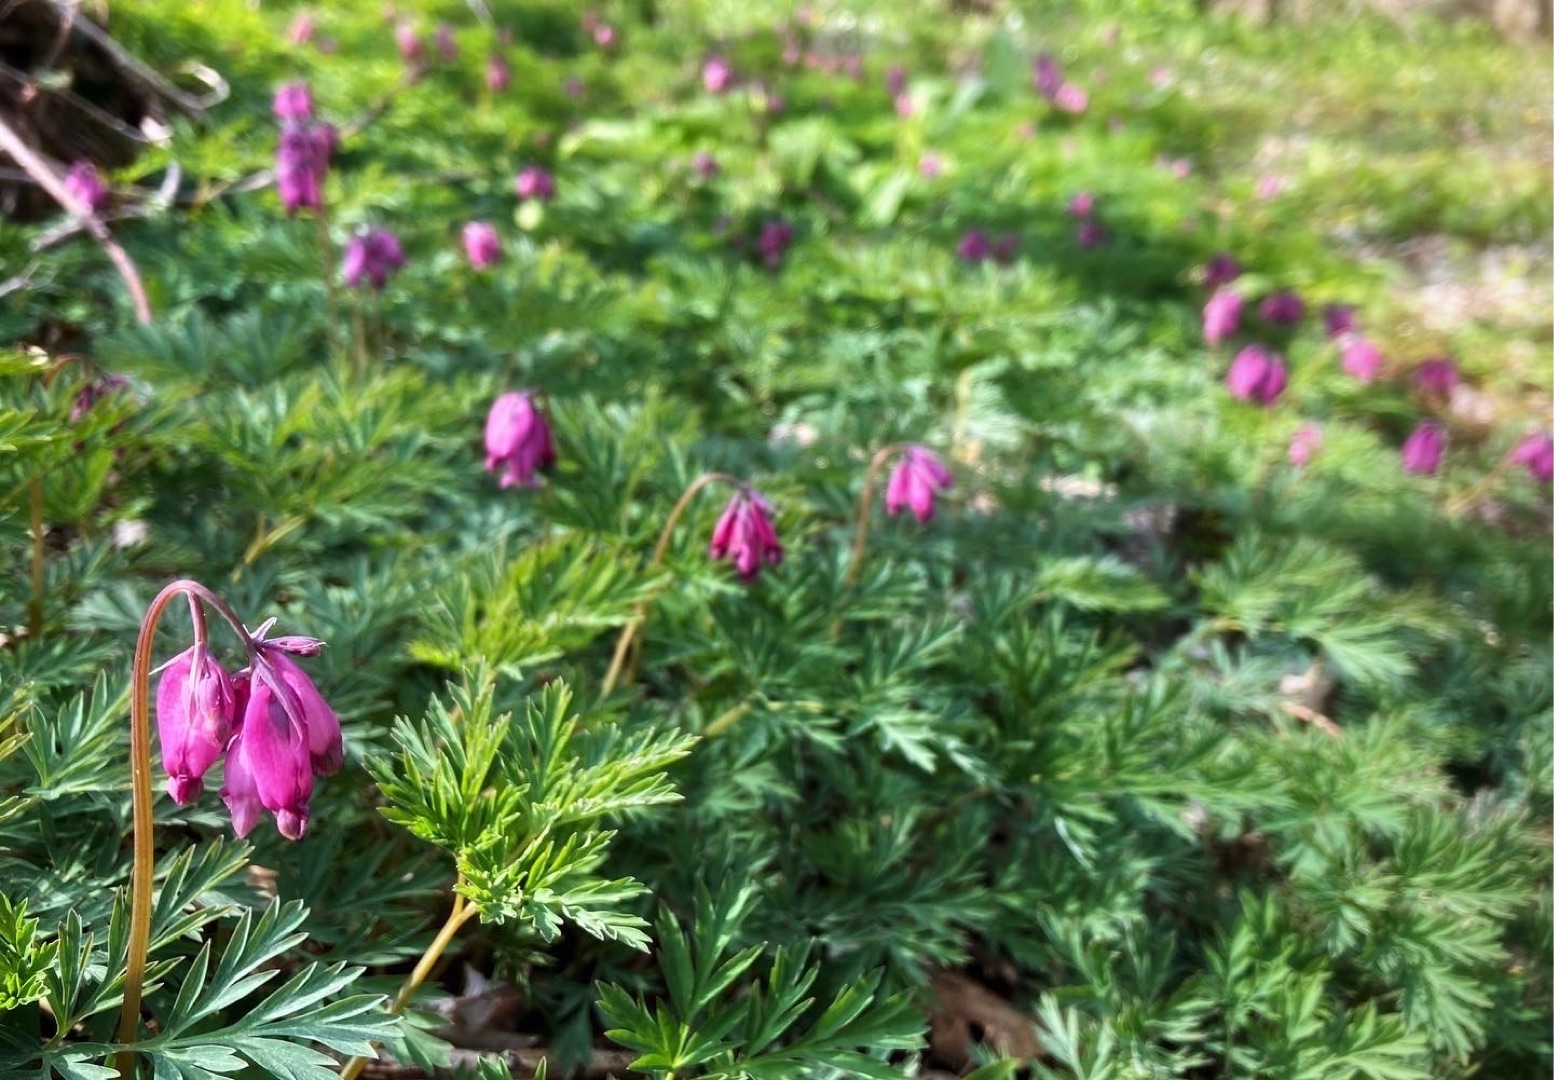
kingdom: Plantae
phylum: Tracheophyta
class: Magnoliopsida
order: Ranunculales
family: Papaveraceae
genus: Dicentra
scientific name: Dicentra formosa
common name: Småhjerte
